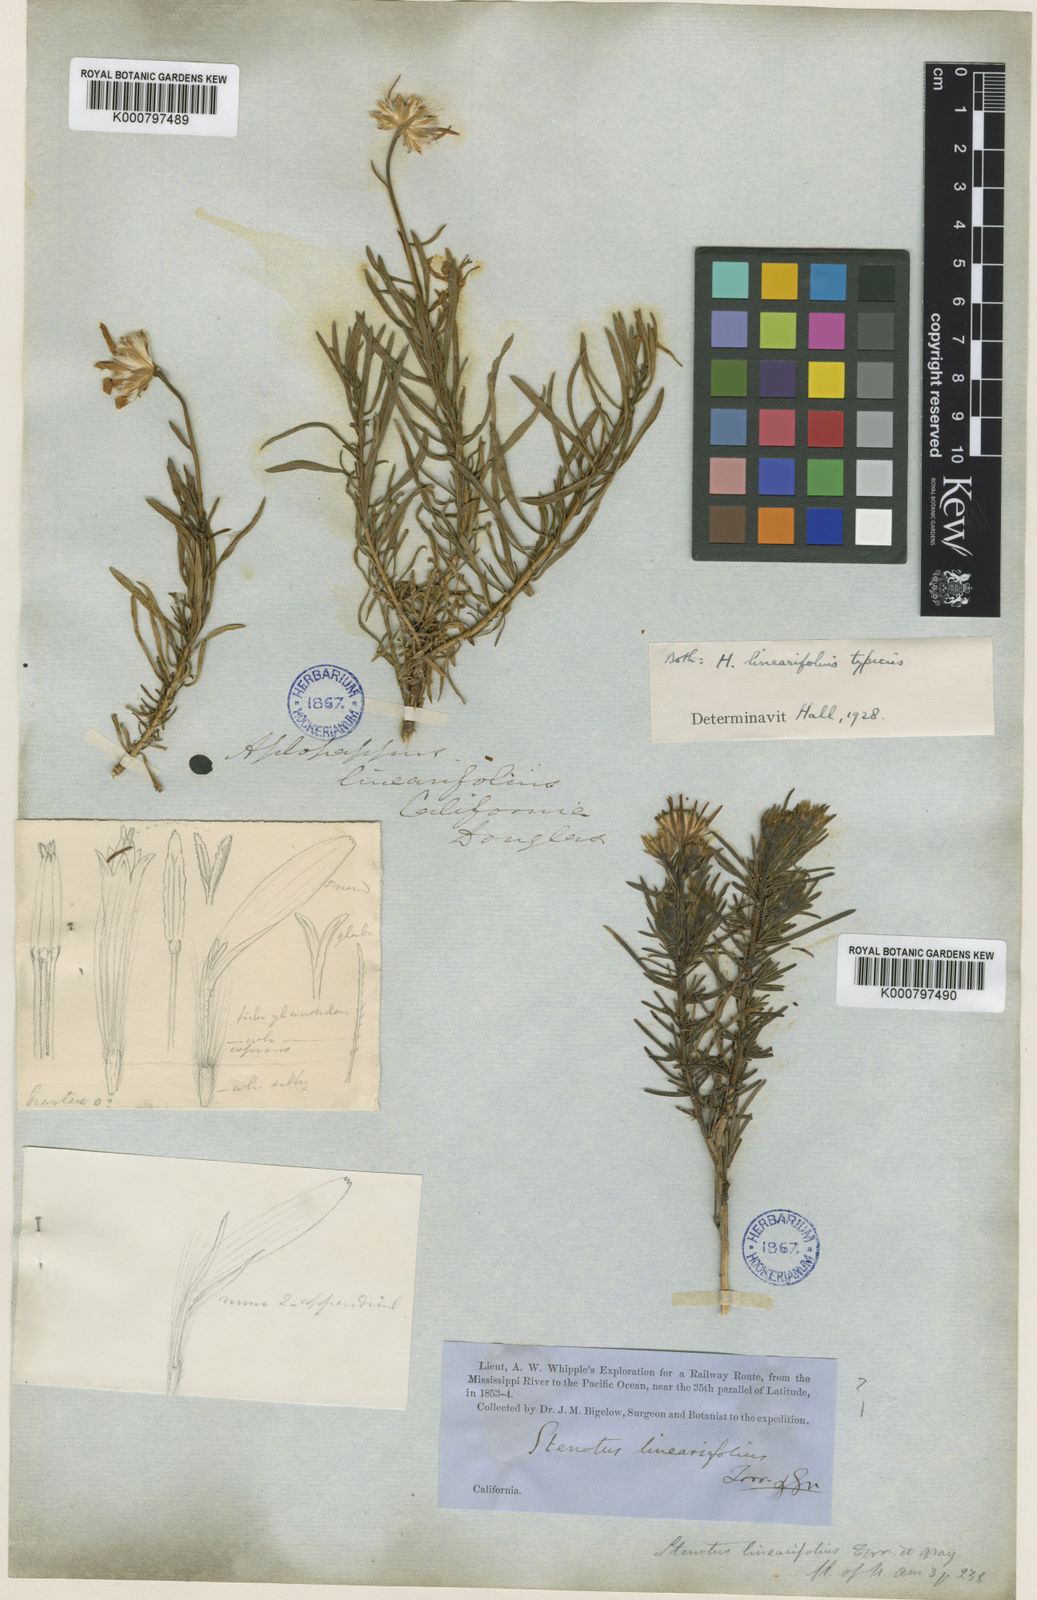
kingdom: Plantae
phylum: Tracheophyta
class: Magnoliopsida
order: Asterales
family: Asteraceae
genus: Ericameria
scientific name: Ericameria linearifolia
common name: Interior goldenbush
